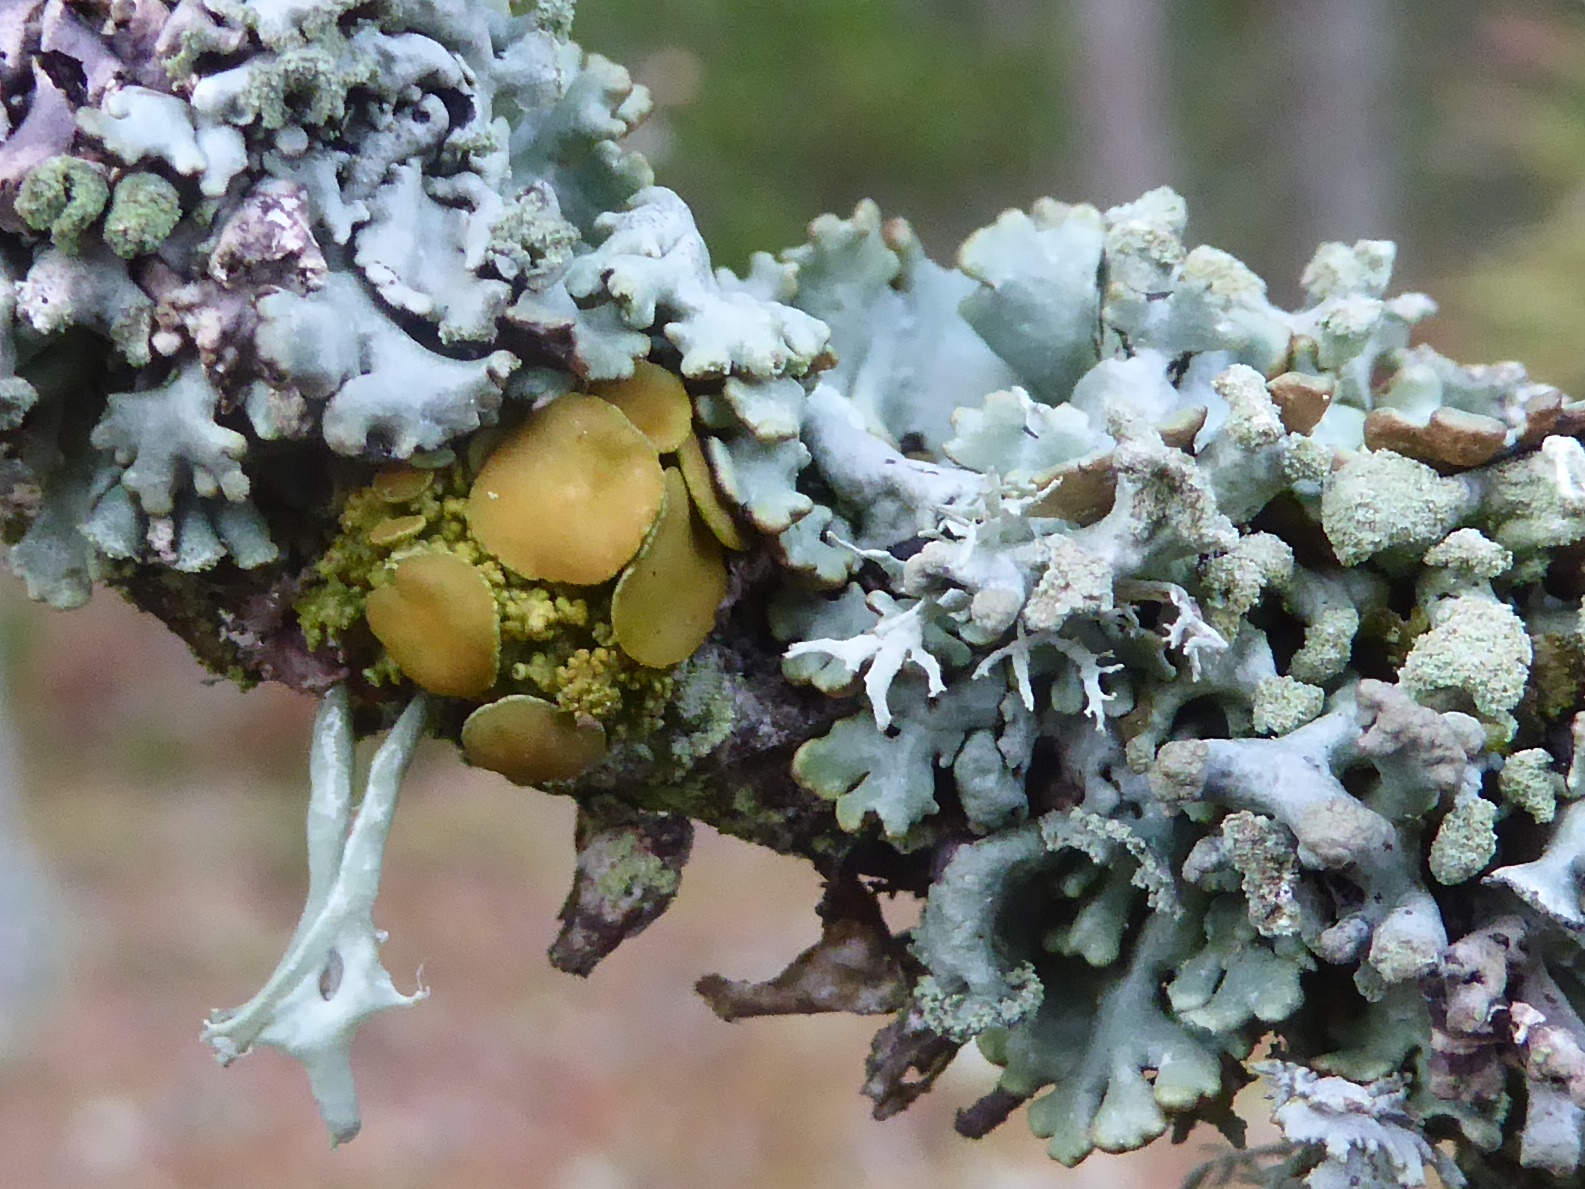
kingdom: Fungi
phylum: Ascomycota
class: Lecanoromycetes
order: Teloschistales
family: Teloschistaceae
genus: Polycauliona
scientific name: Polycauliona polycarpa
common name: mangefrugtet orangelav
